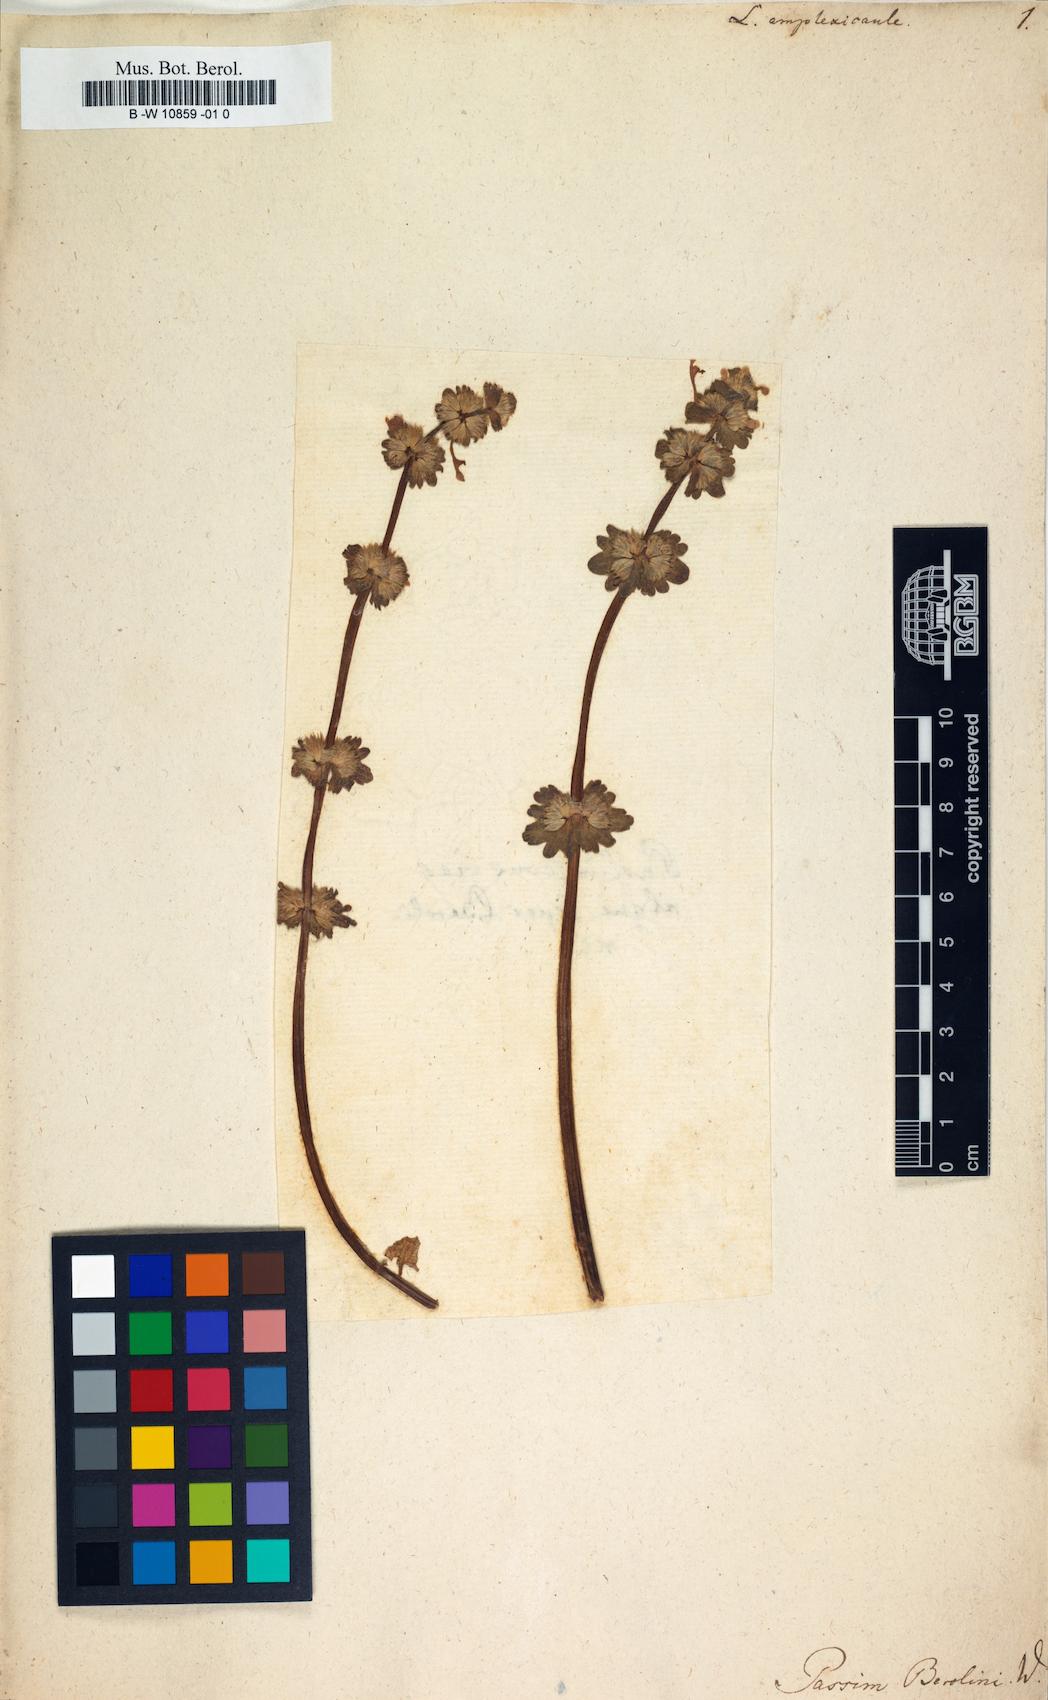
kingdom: Plantae
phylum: Tracheophyta
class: Magnoliopsida
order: Lamiales
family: Lamiaceae
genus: Lamium
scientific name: Lamium amplexicaule
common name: Henbit dead-nettle
